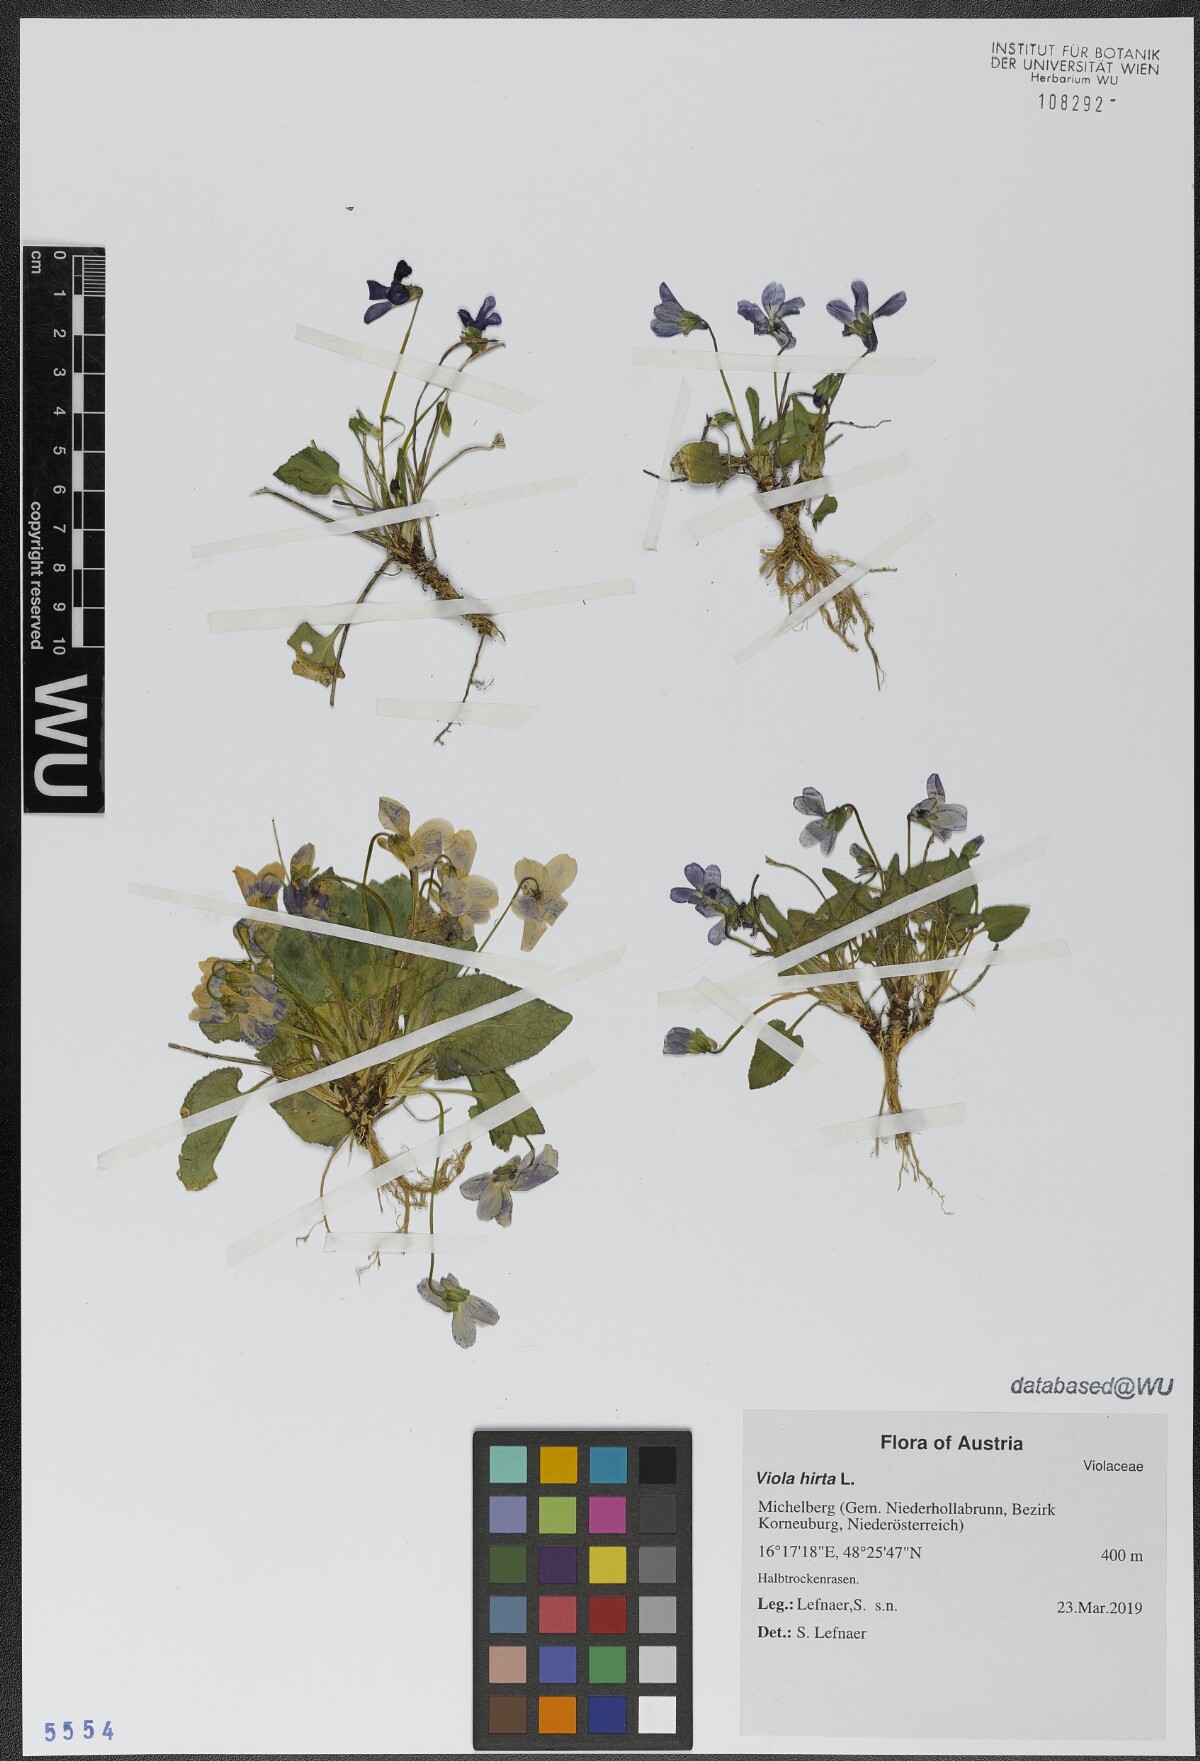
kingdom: Plantae
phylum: Tracheophyta
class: Magnoliopsida
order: Malpighiales
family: Violaceae
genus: Viola
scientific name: Viola hirta
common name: Hairy violet
